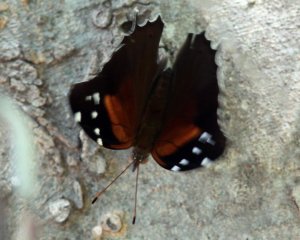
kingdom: Animalia
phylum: Arthropoda
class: Insecta
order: Lepidoptera
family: Nymphalidae
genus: Coea
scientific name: Coea acheronta
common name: Tailed Cecropian
